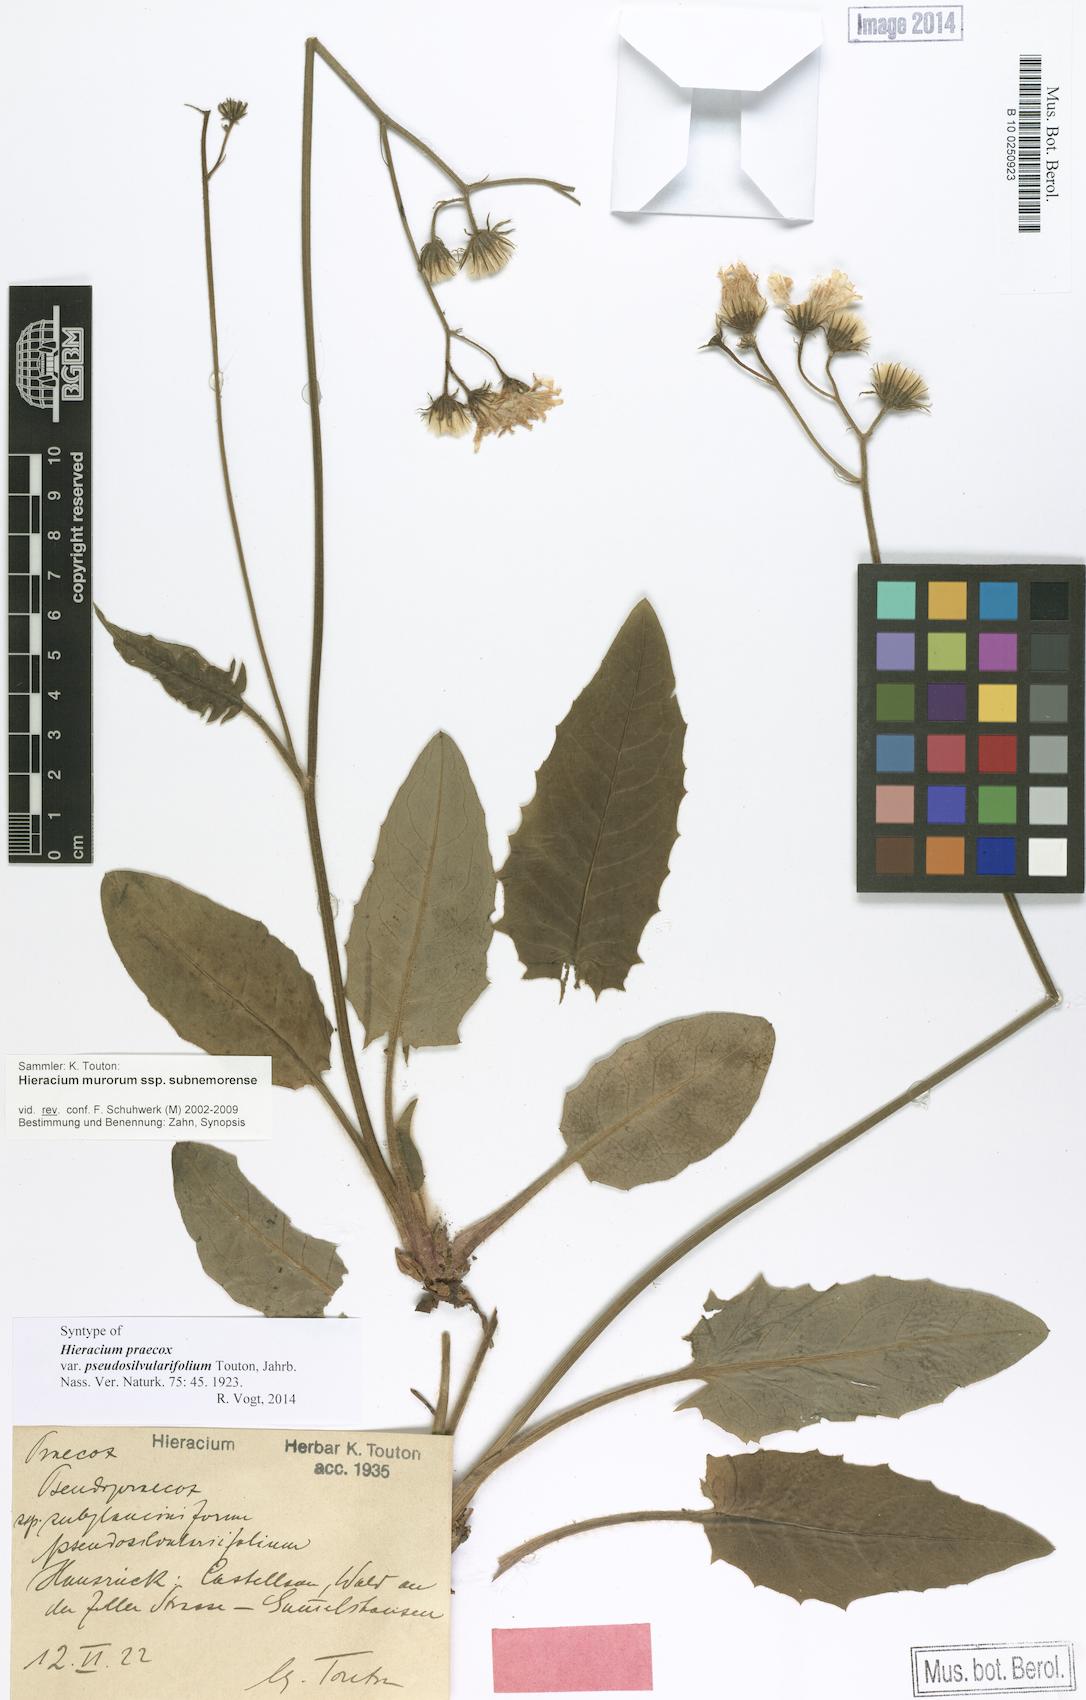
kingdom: Plantae
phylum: Tracheophyta
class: Magnoliopsida
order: Asterales
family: Asteraceae
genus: Hieracium
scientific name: Hieracium praecox
